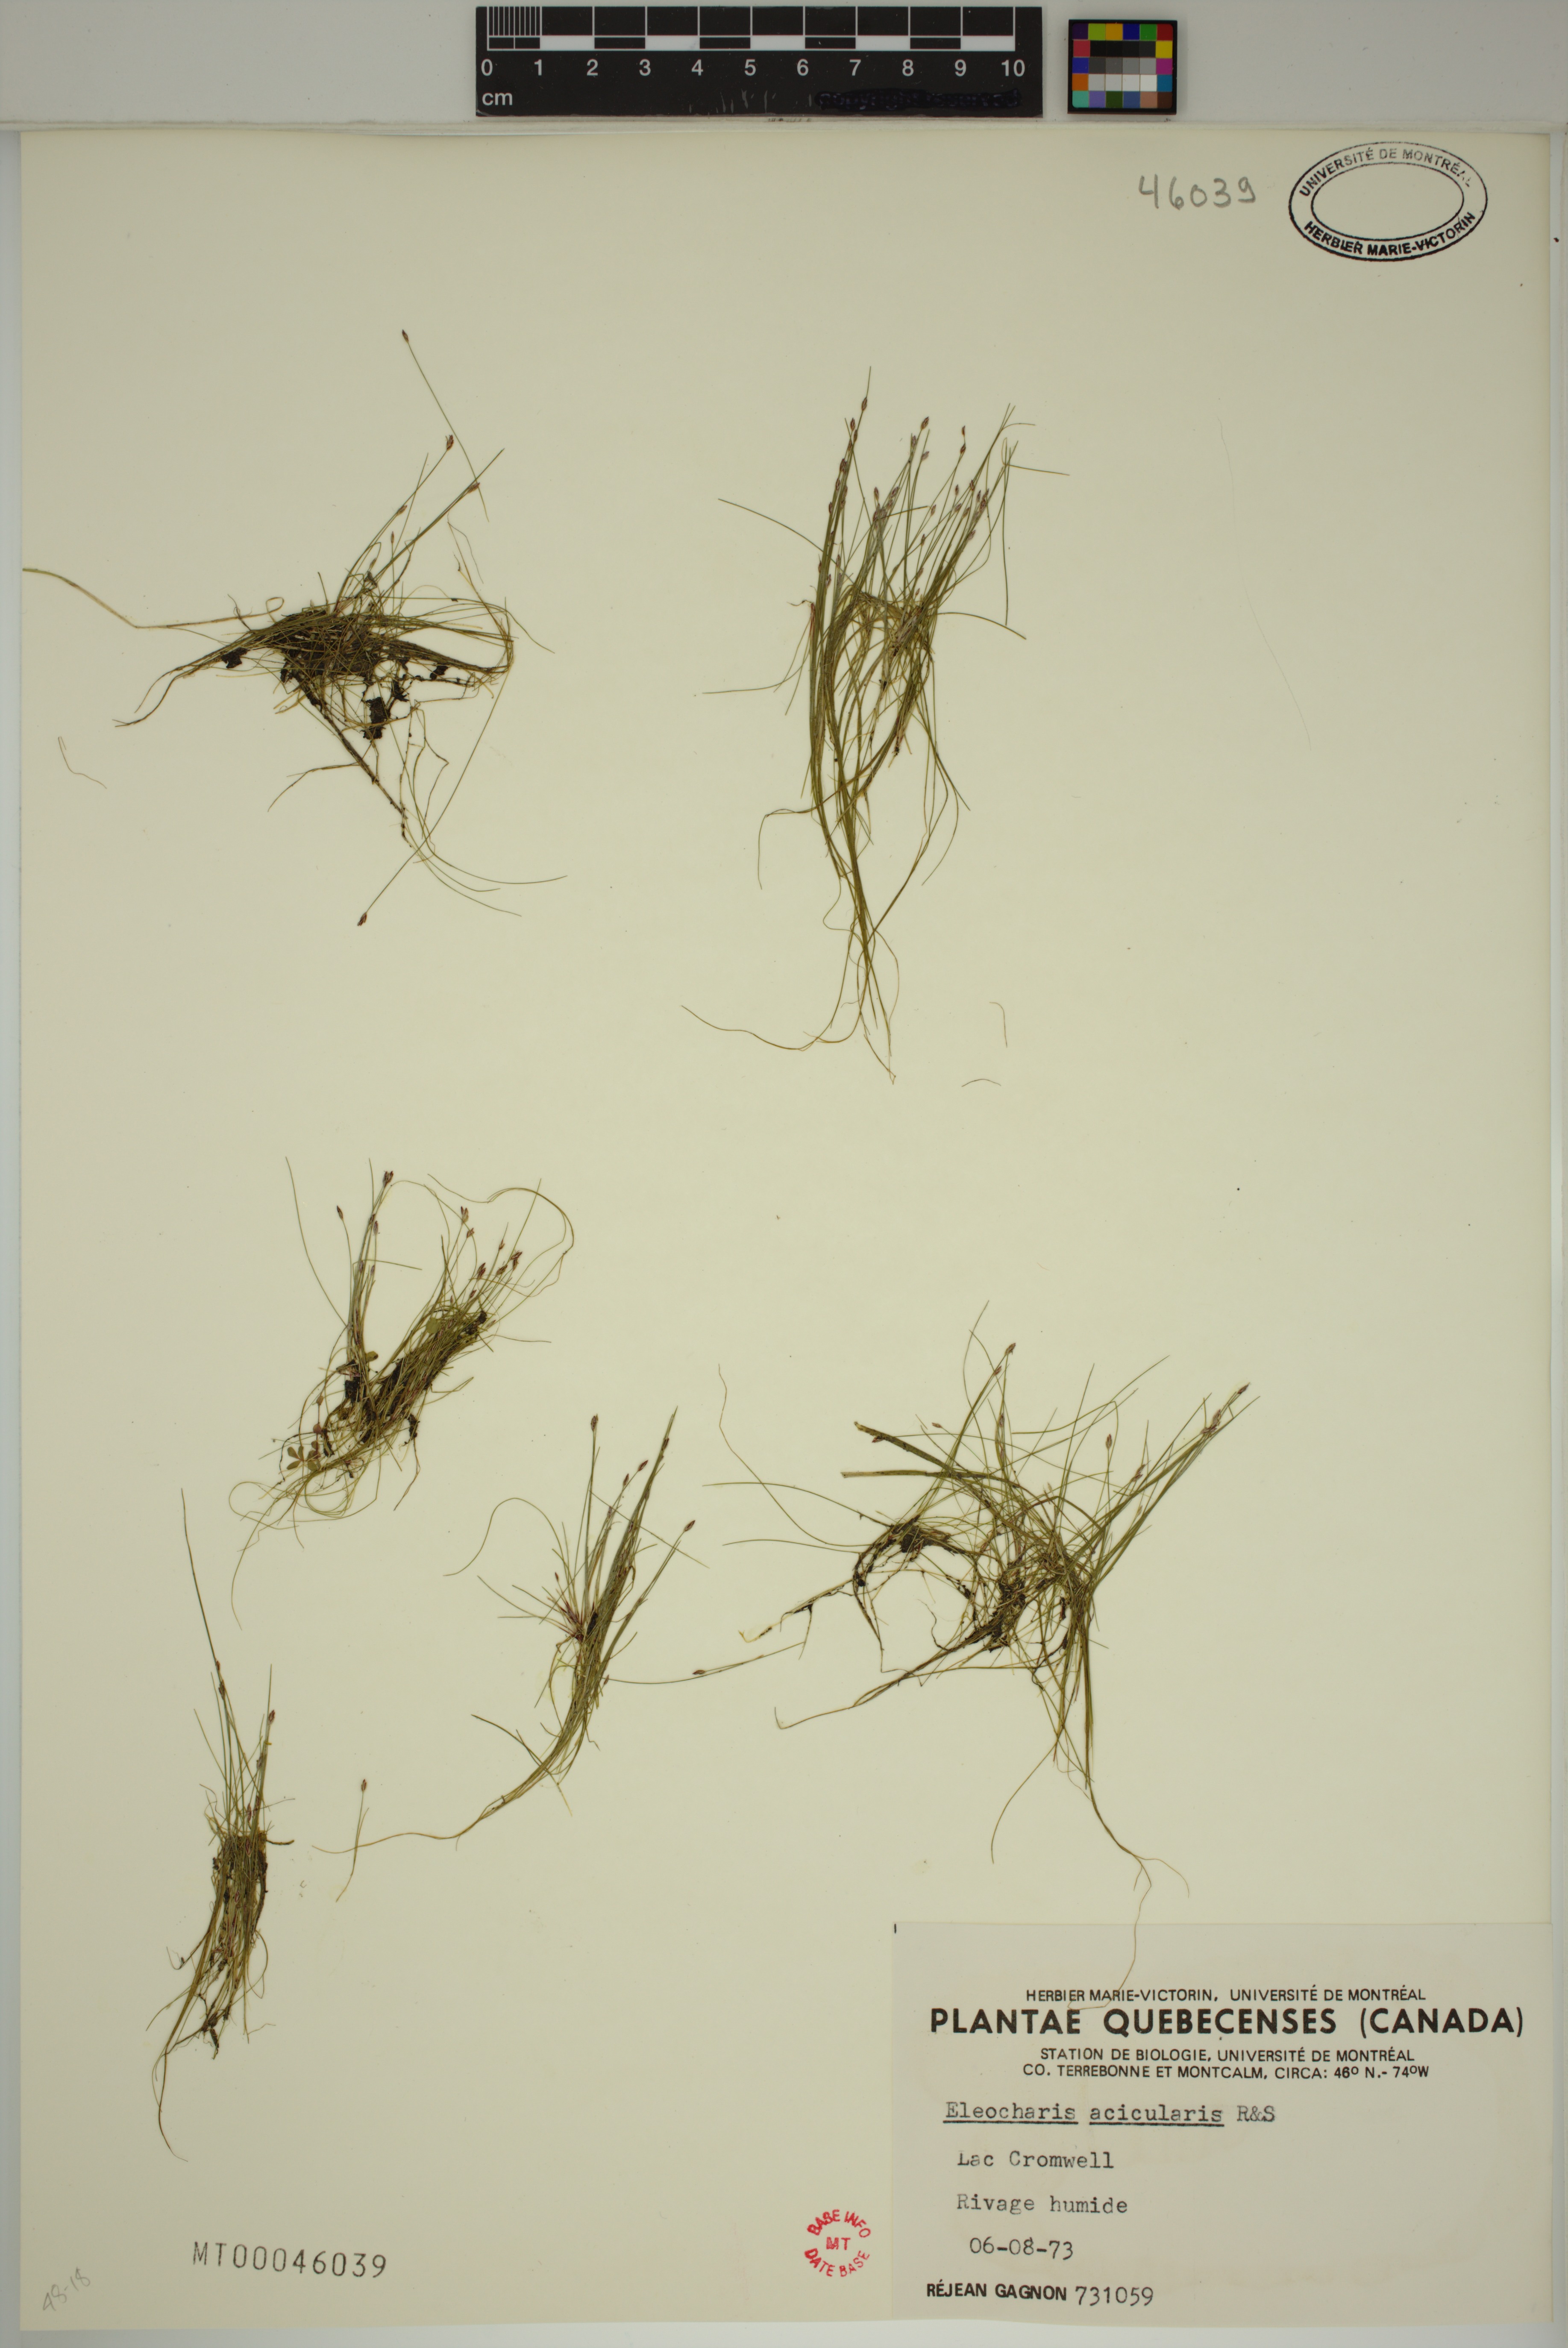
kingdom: Plantae
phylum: Tracheophyta
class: Liliopsida
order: Poales
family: Cyperaceae
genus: Eleocharis
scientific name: Eleocharis acicularis
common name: Needle spike-rush
